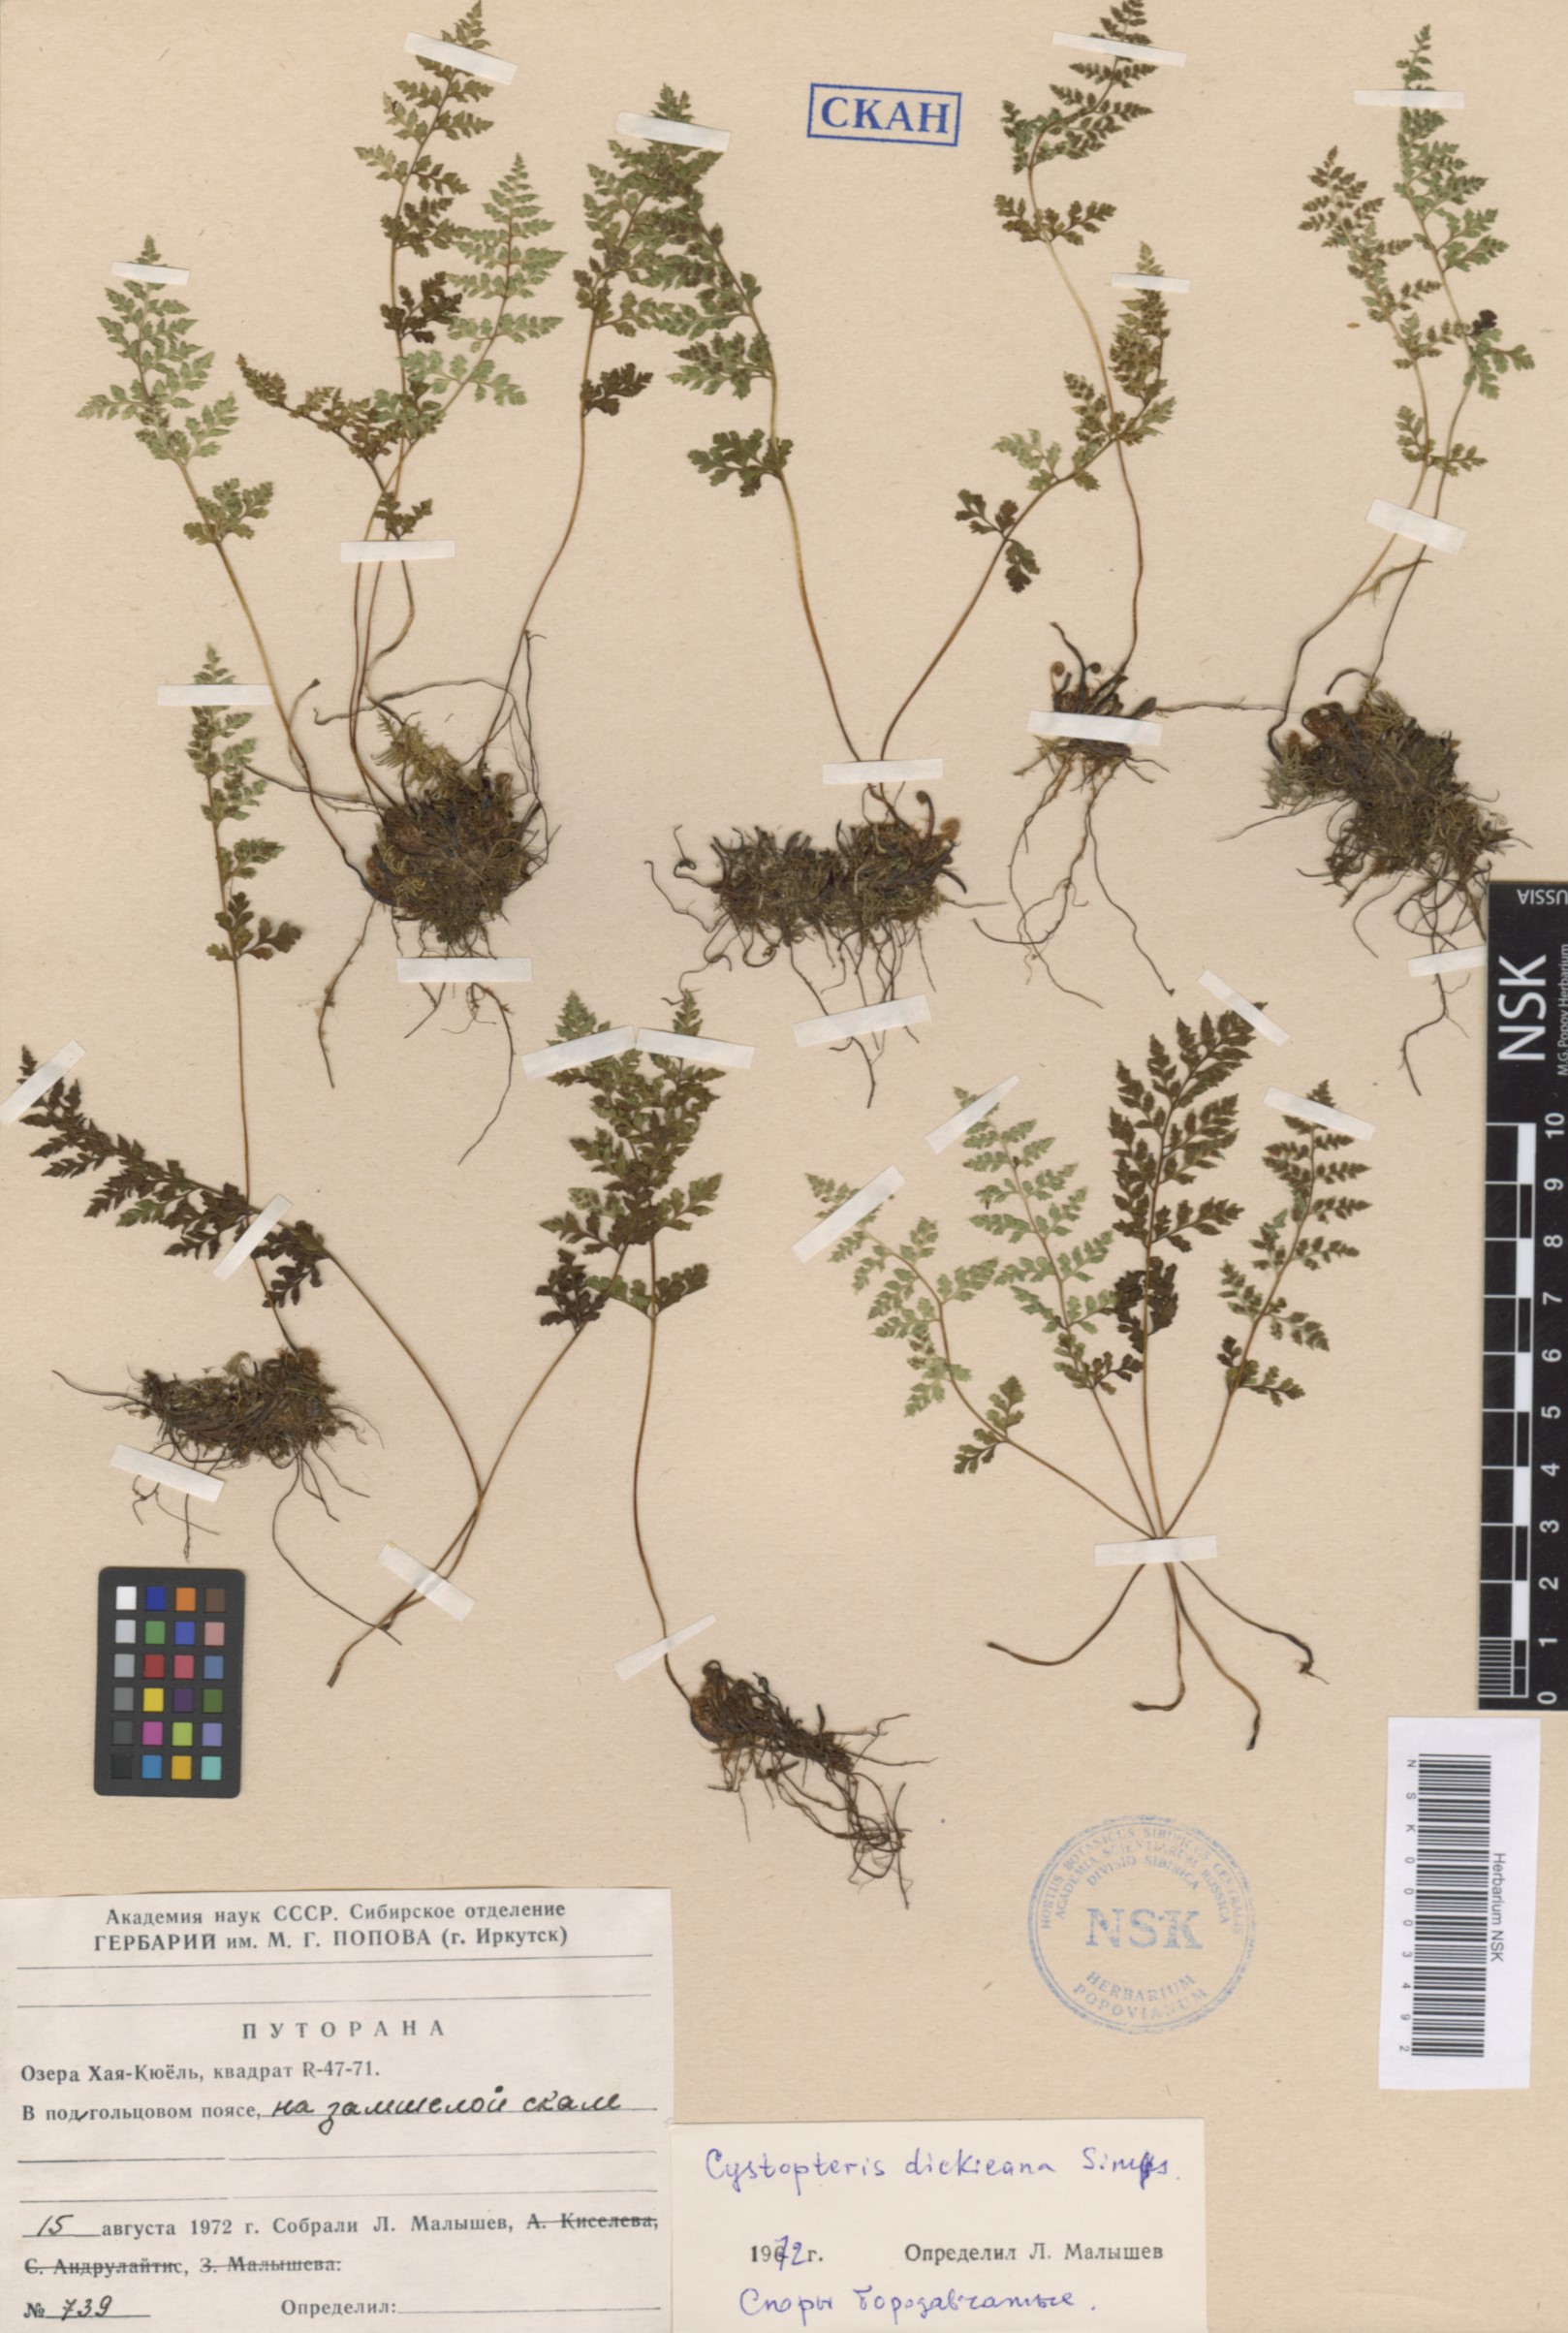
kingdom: Plantae
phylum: Tracheophyta
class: Polypodiopsida
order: Polypodiales
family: Cystopteridaceae
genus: Cystopteris
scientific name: Cystopteris dickieana
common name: Dickie's bladder-fern
